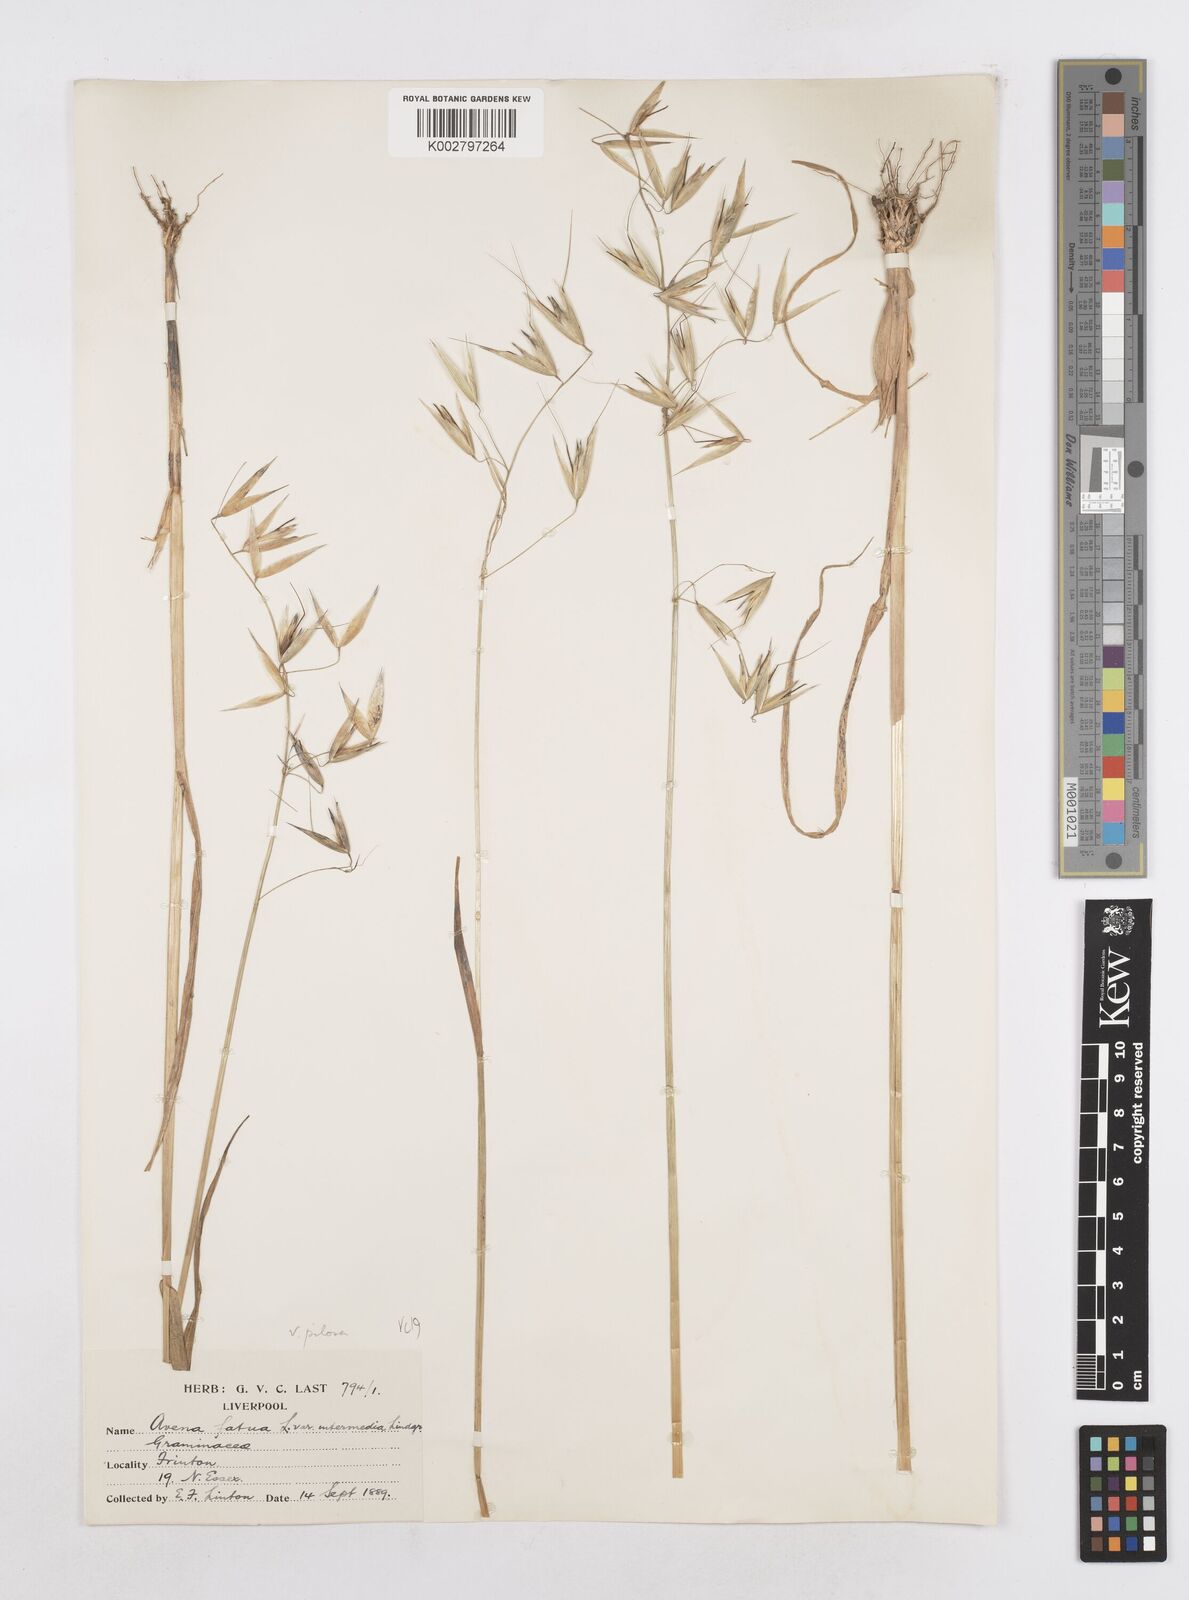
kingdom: Plantae
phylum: Tracheophyta
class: Liliopsida
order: Poales
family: Poaceae
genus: Avena
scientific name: Avena fatua
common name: Wild oat
